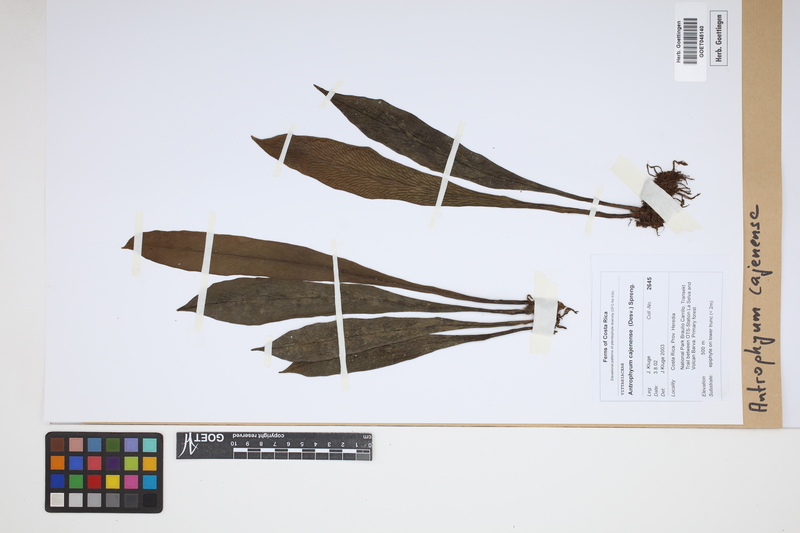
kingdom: Plantae
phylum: Tracheophyta
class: Polypodiopsida
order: Polypodiales
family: Pteridaceae
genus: Polytaenium
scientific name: Polytaenium cajenense
